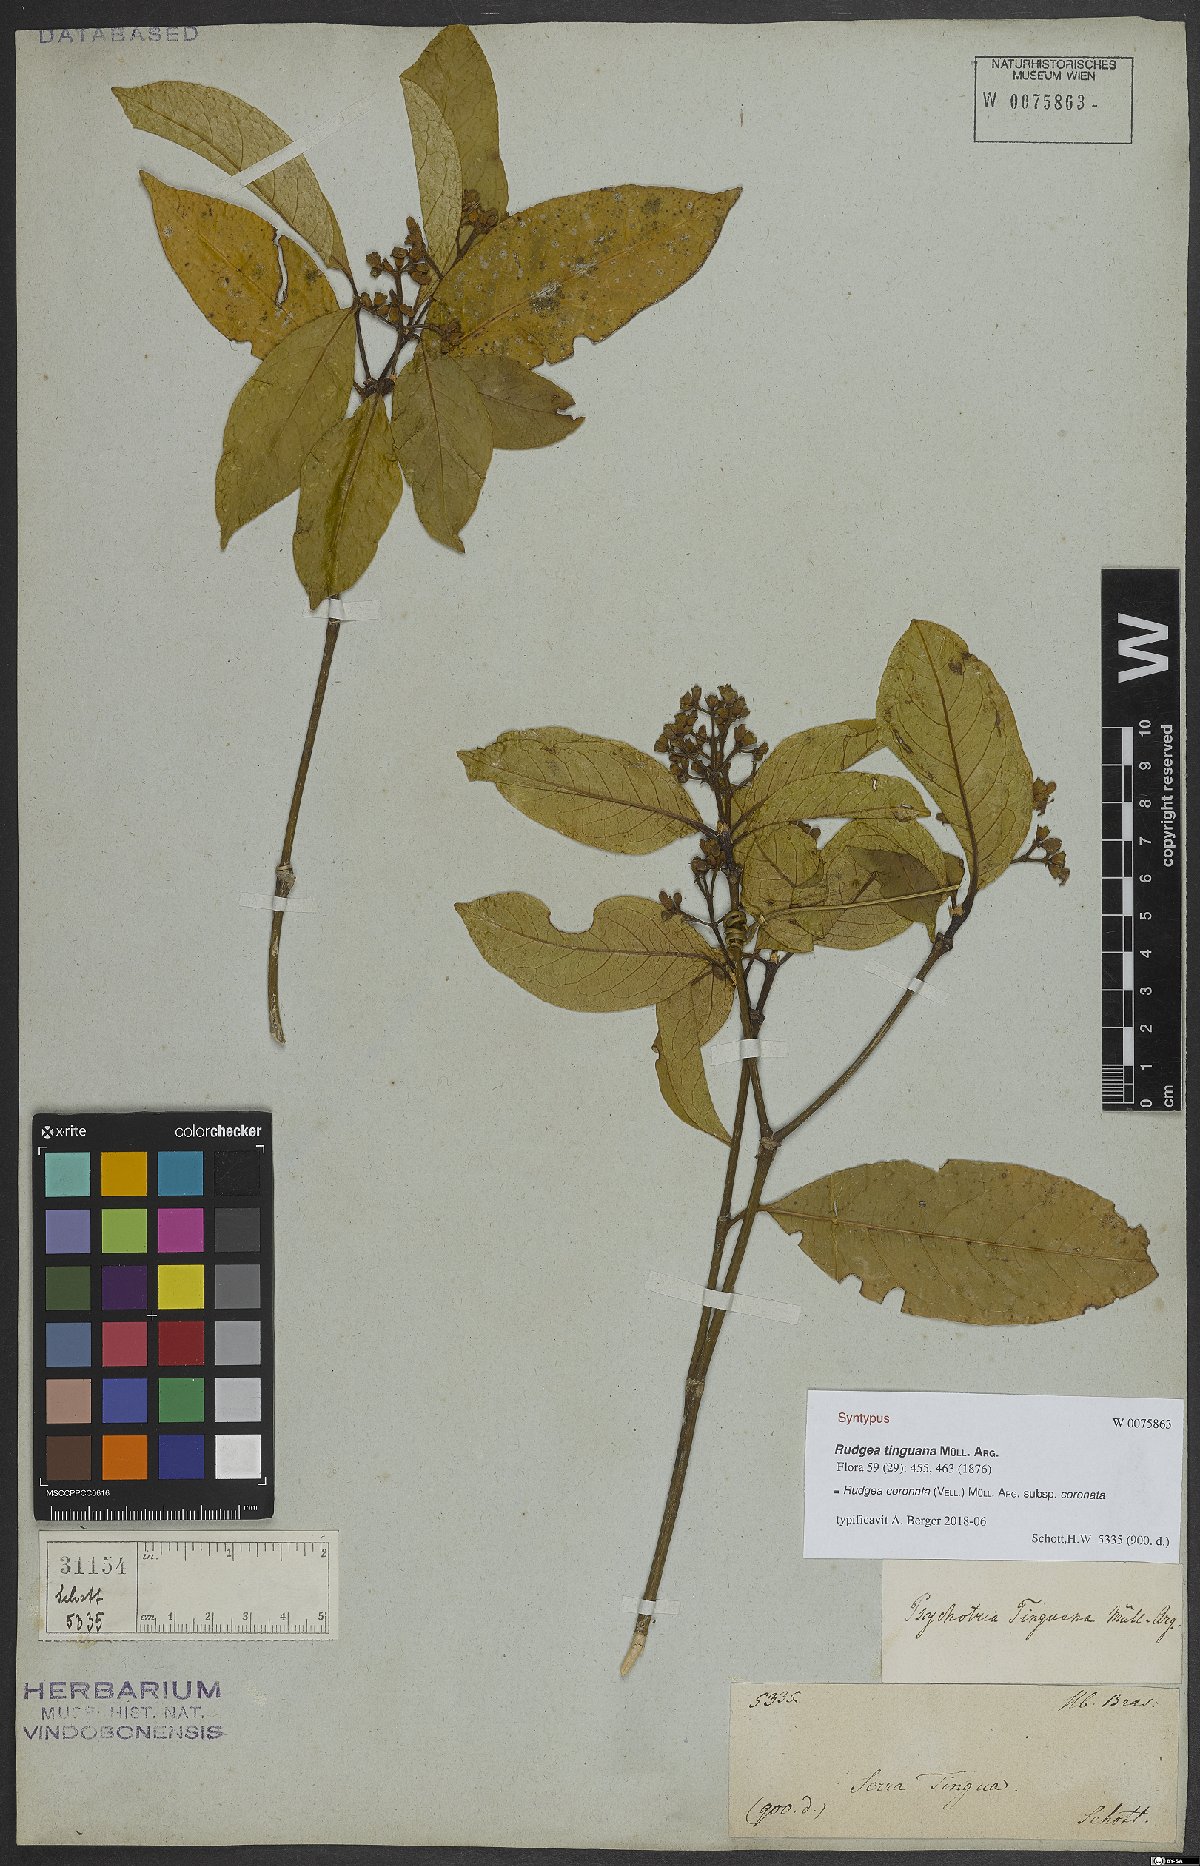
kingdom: Plantae
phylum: Tracheophyta
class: Magnoliopsida
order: Gentianales
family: Rubiaceae
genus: Rudgea
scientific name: Rudgea coronata
